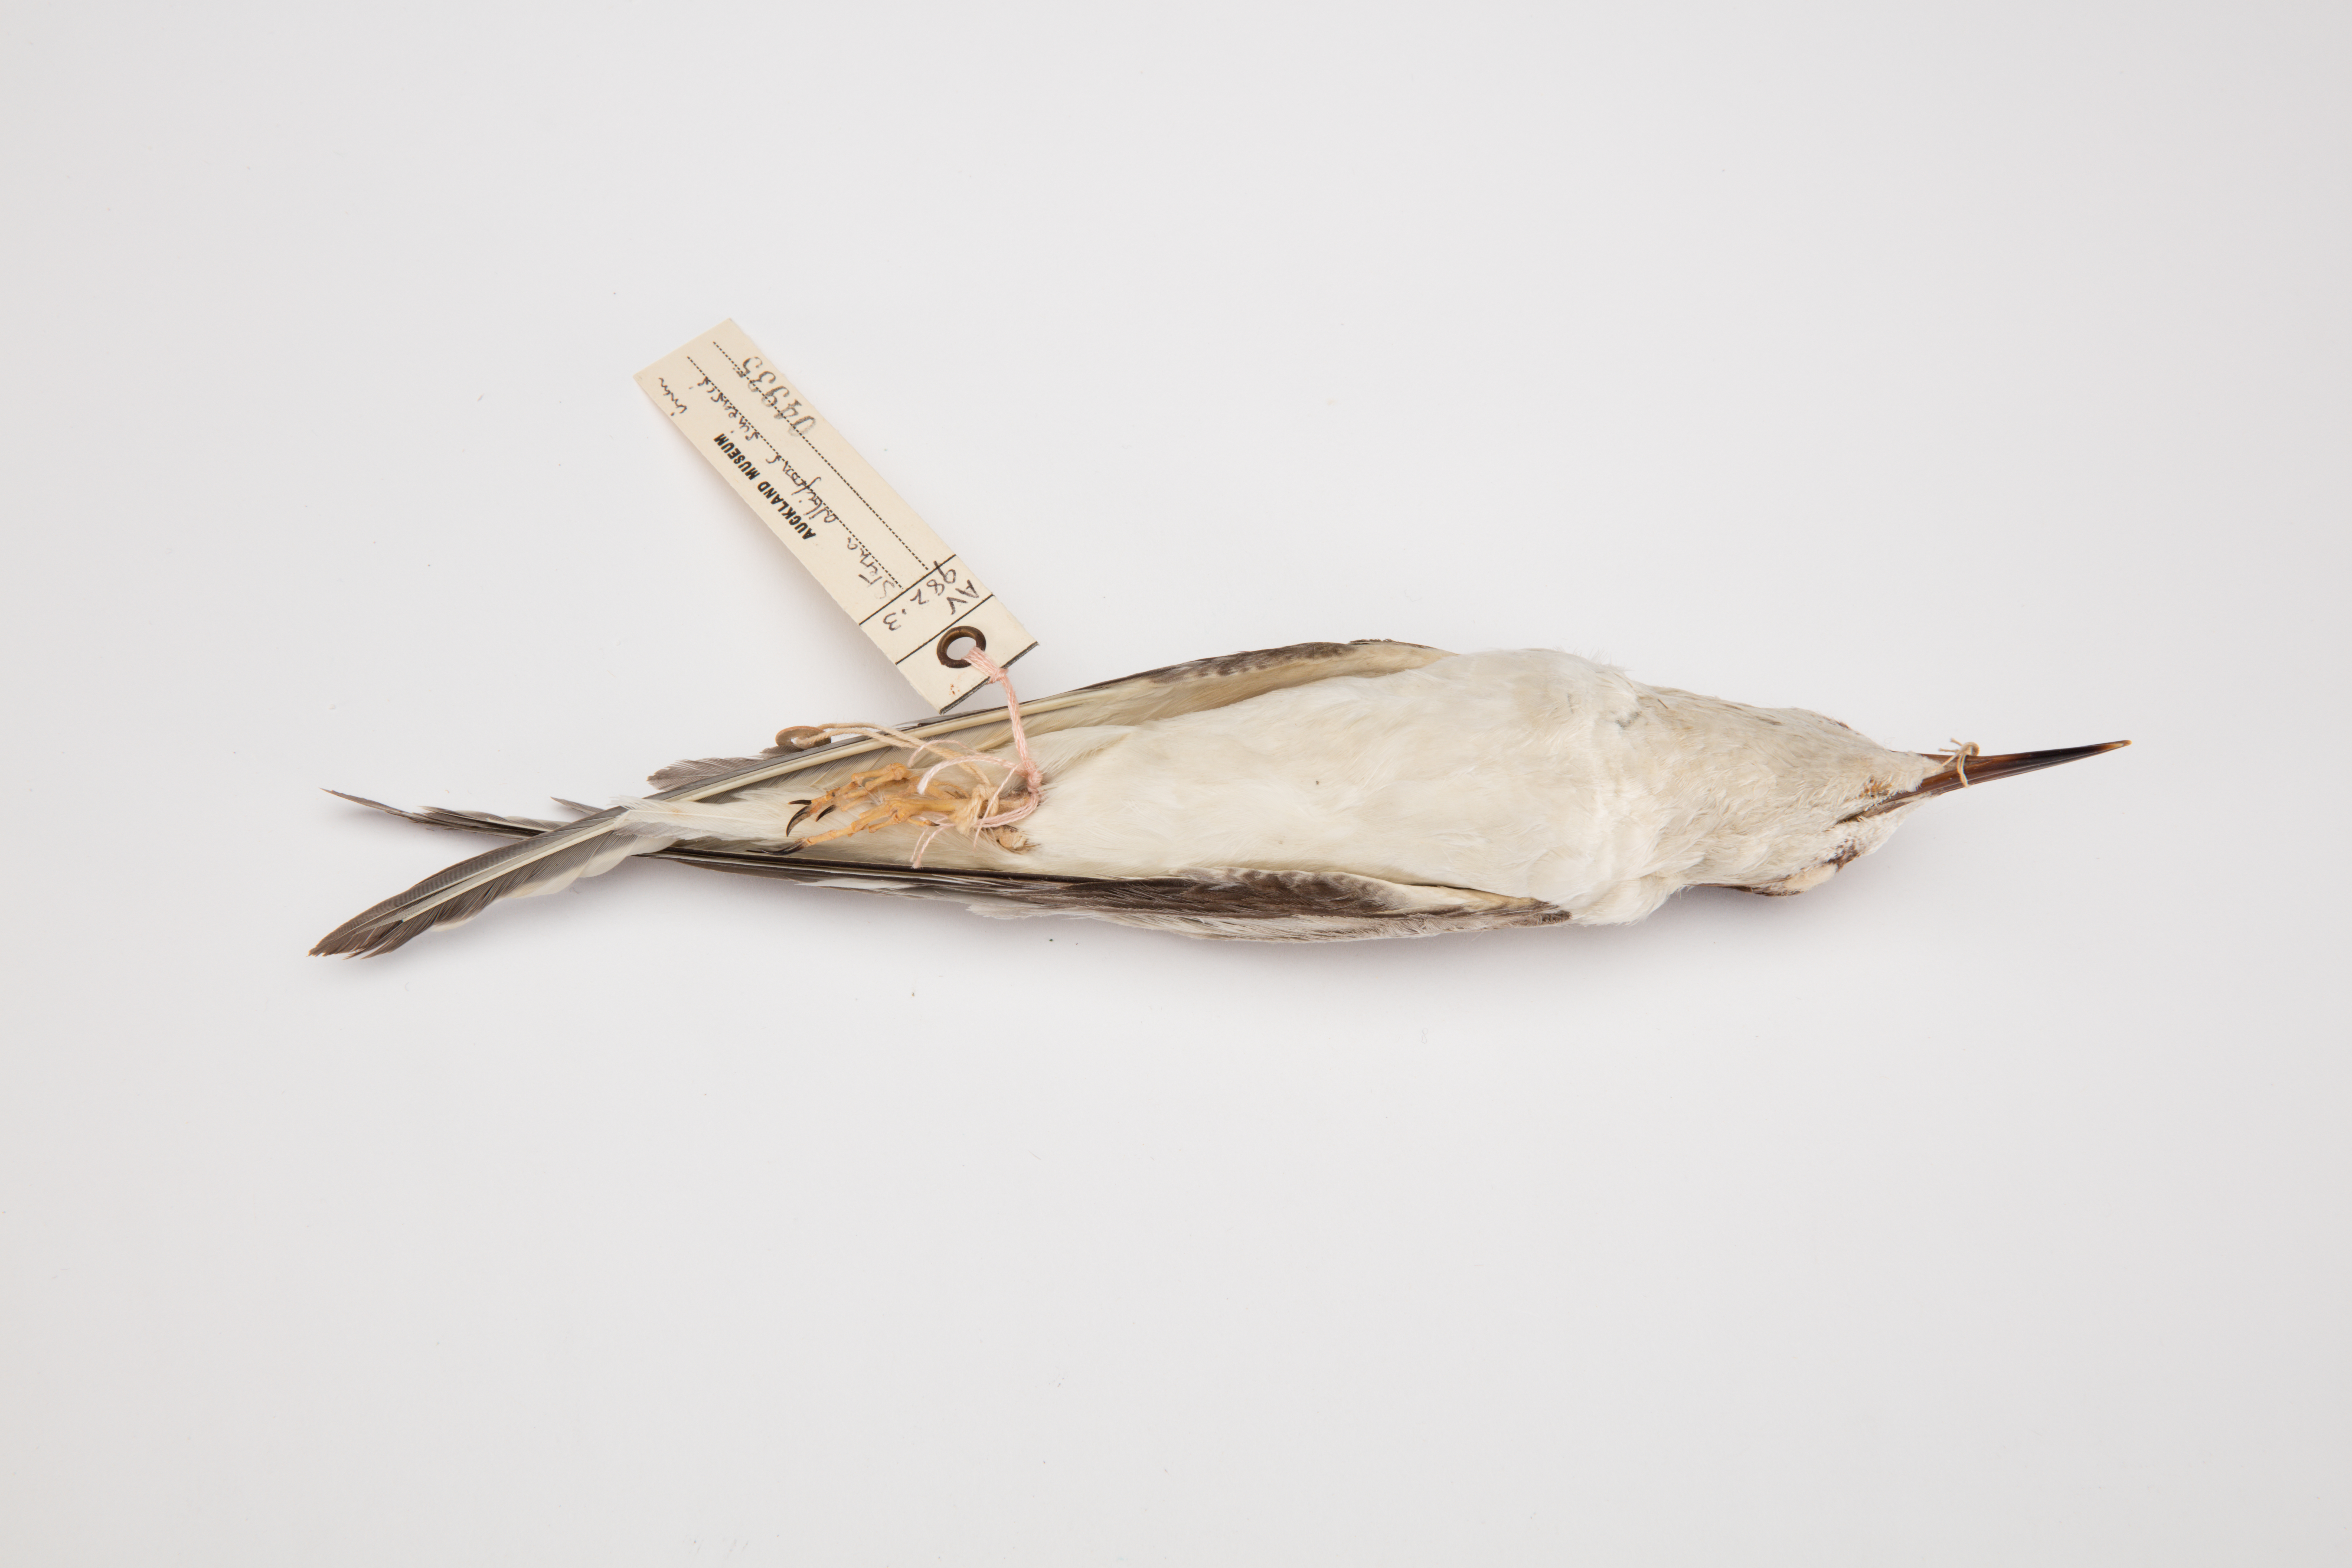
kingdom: Animalia
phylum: Chordata
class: Aves
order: Charadriiformes
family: Laridae
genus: Sternula
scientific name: Sternula albifrons
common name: Little tern
